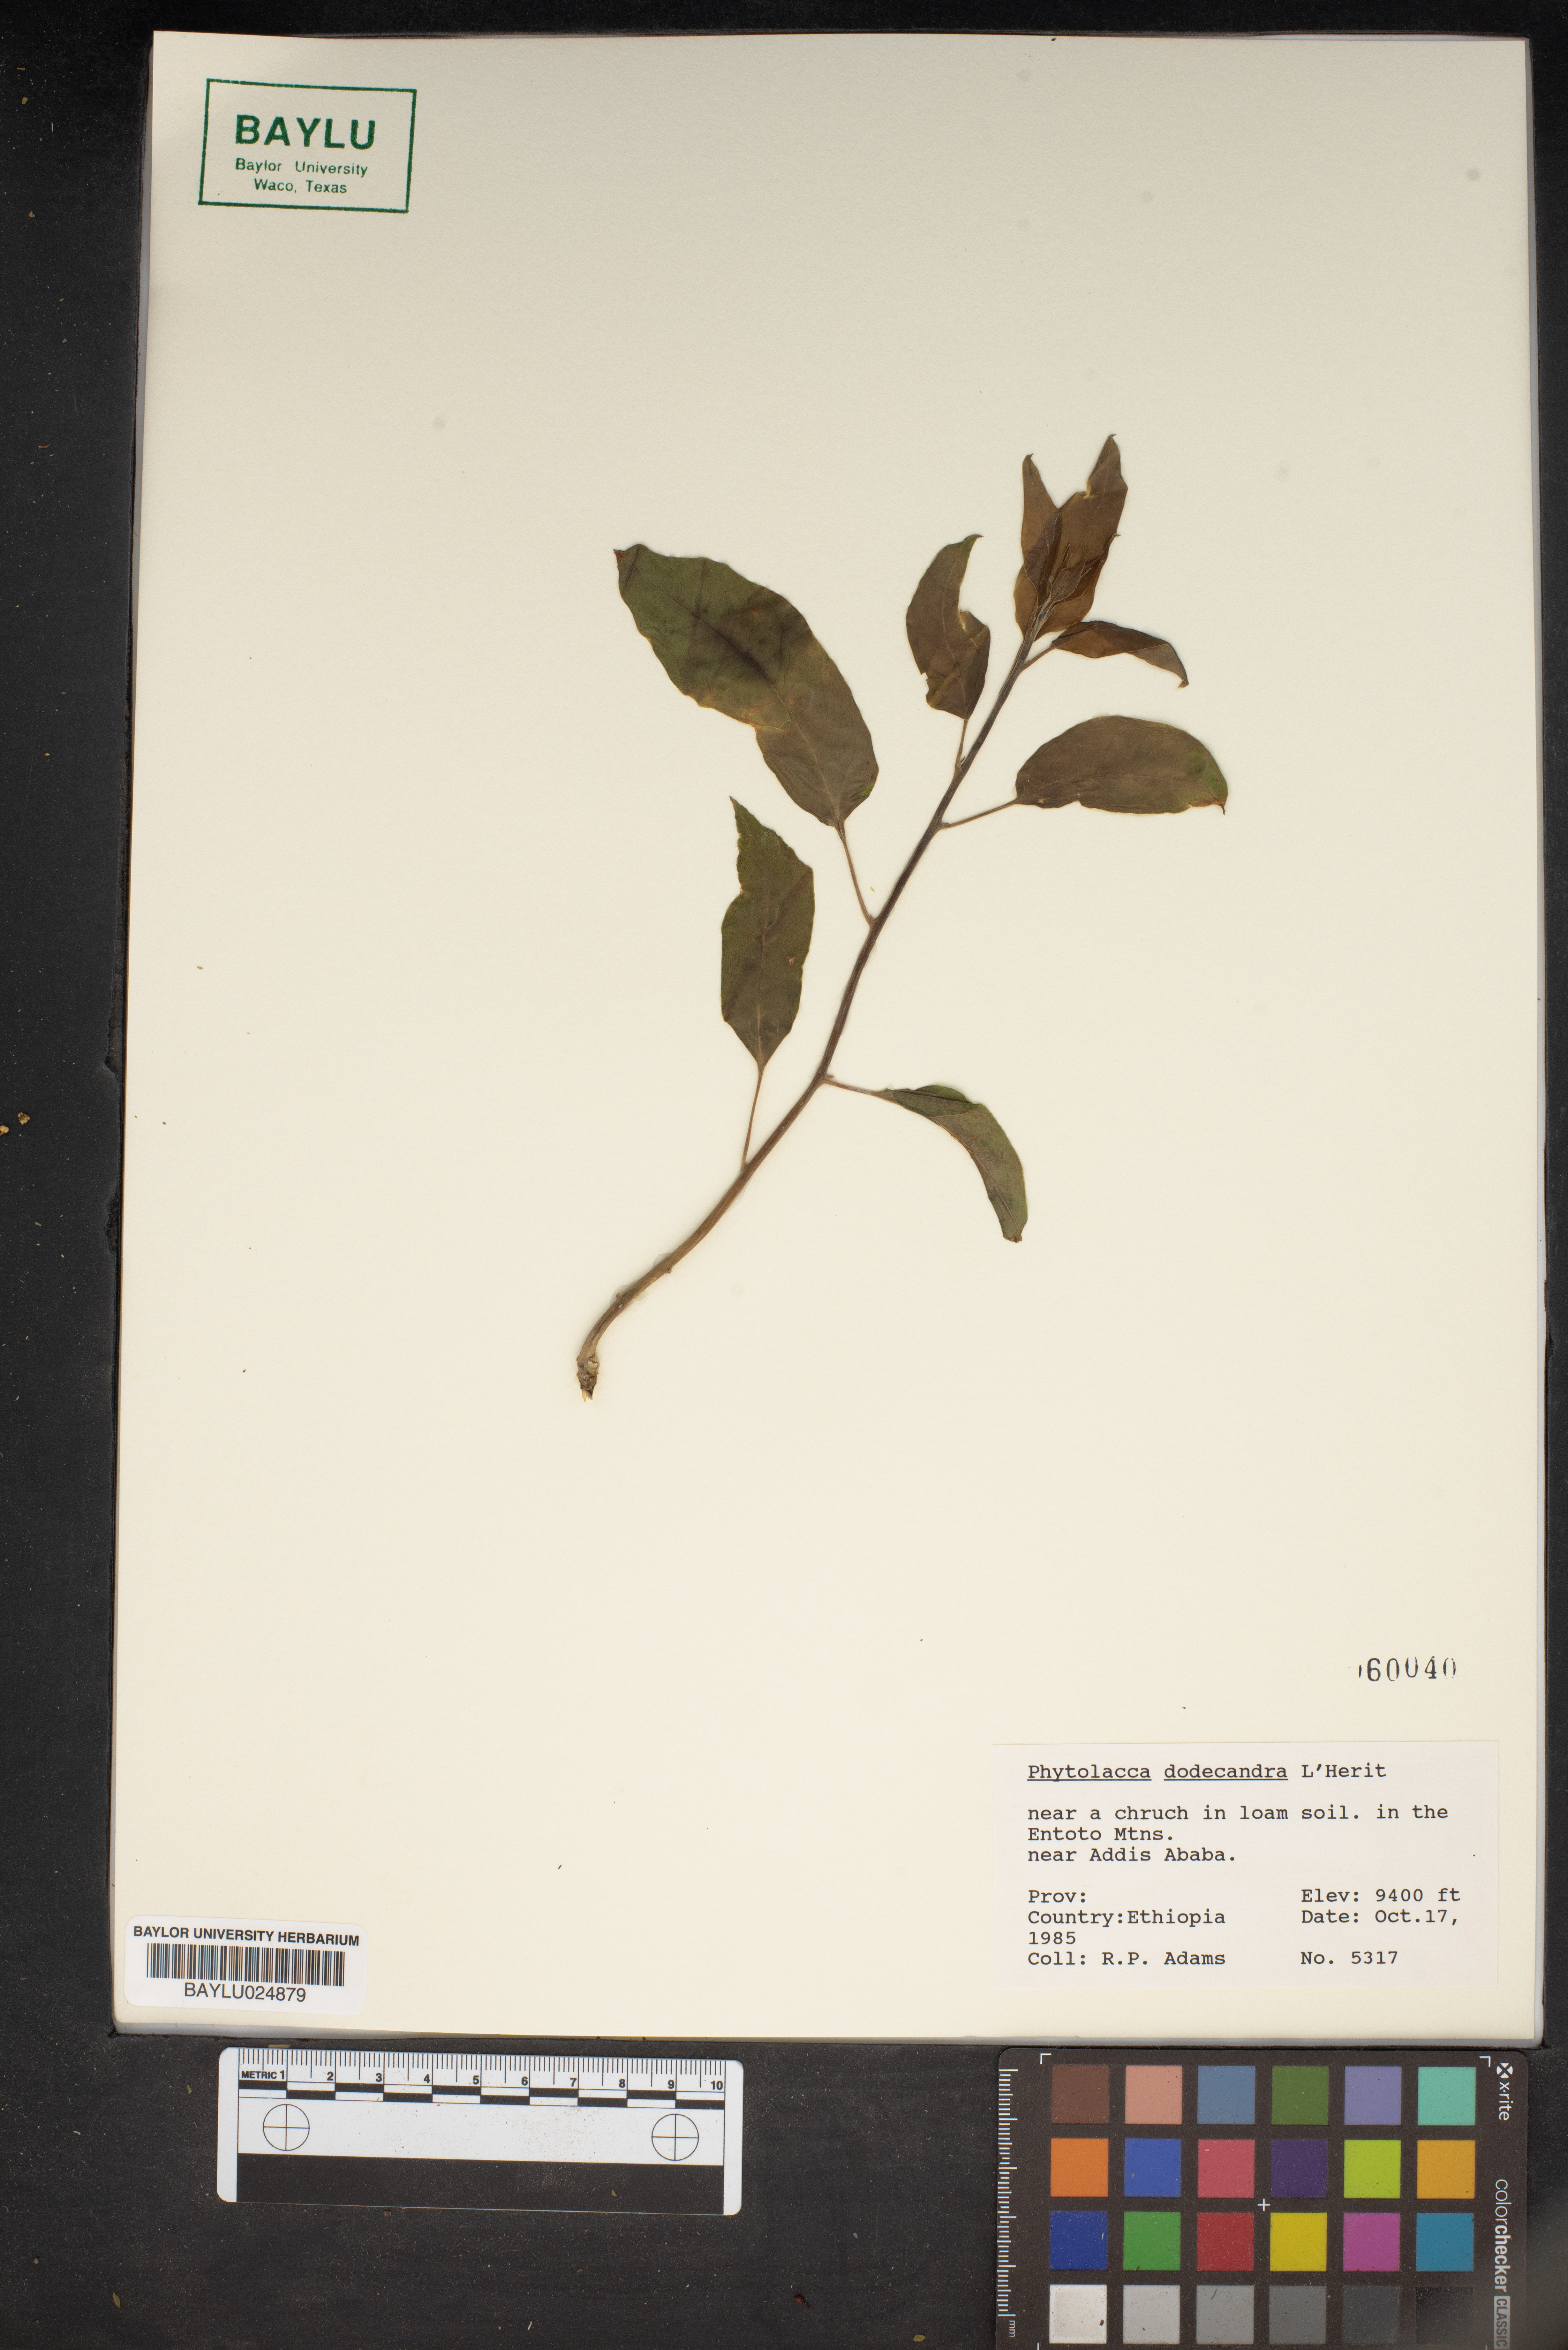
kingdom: Plantae
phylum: Tracheophyta
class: Magnoliopsida
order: Caryophyllales
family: Phytolaccaceae
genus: Phytolacca
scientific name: Phytolacca dodecandra
